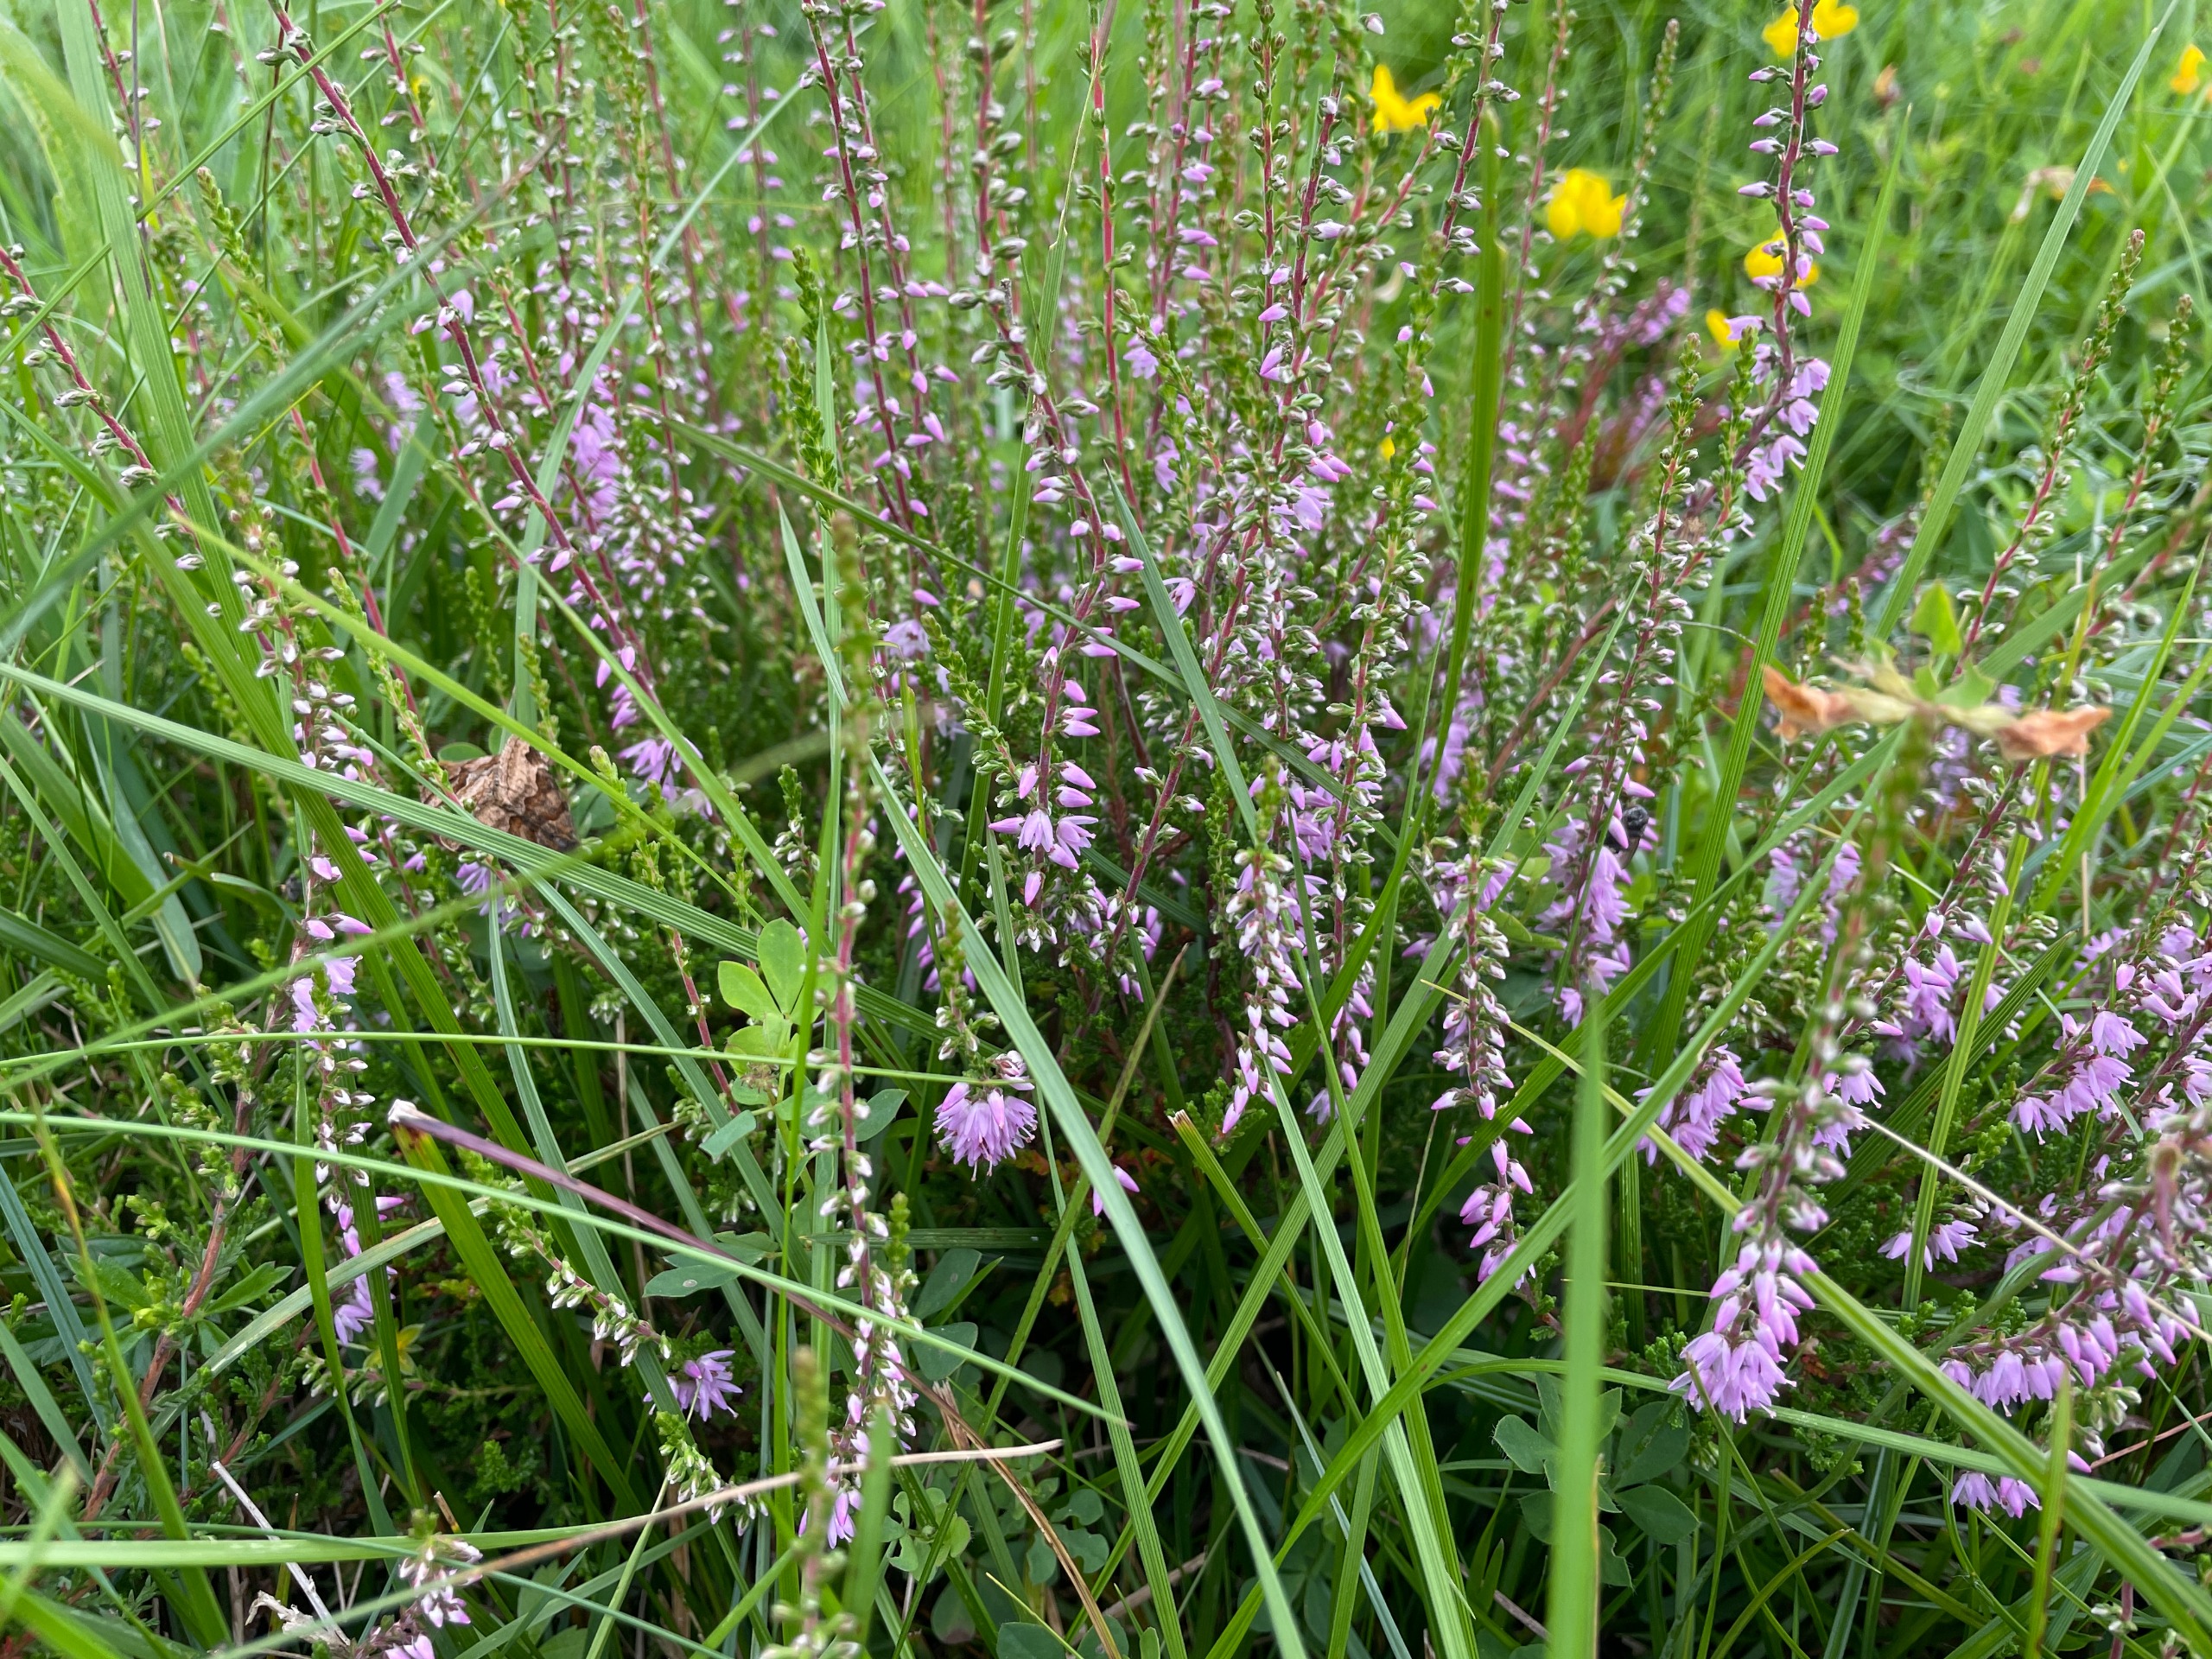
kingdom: Plantae
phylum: Tracheophyta
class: Magnoliopsida
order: Ericales
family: Ericaceae
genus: Calluna
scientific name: Calluna vulgaris
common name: Hedelyng
